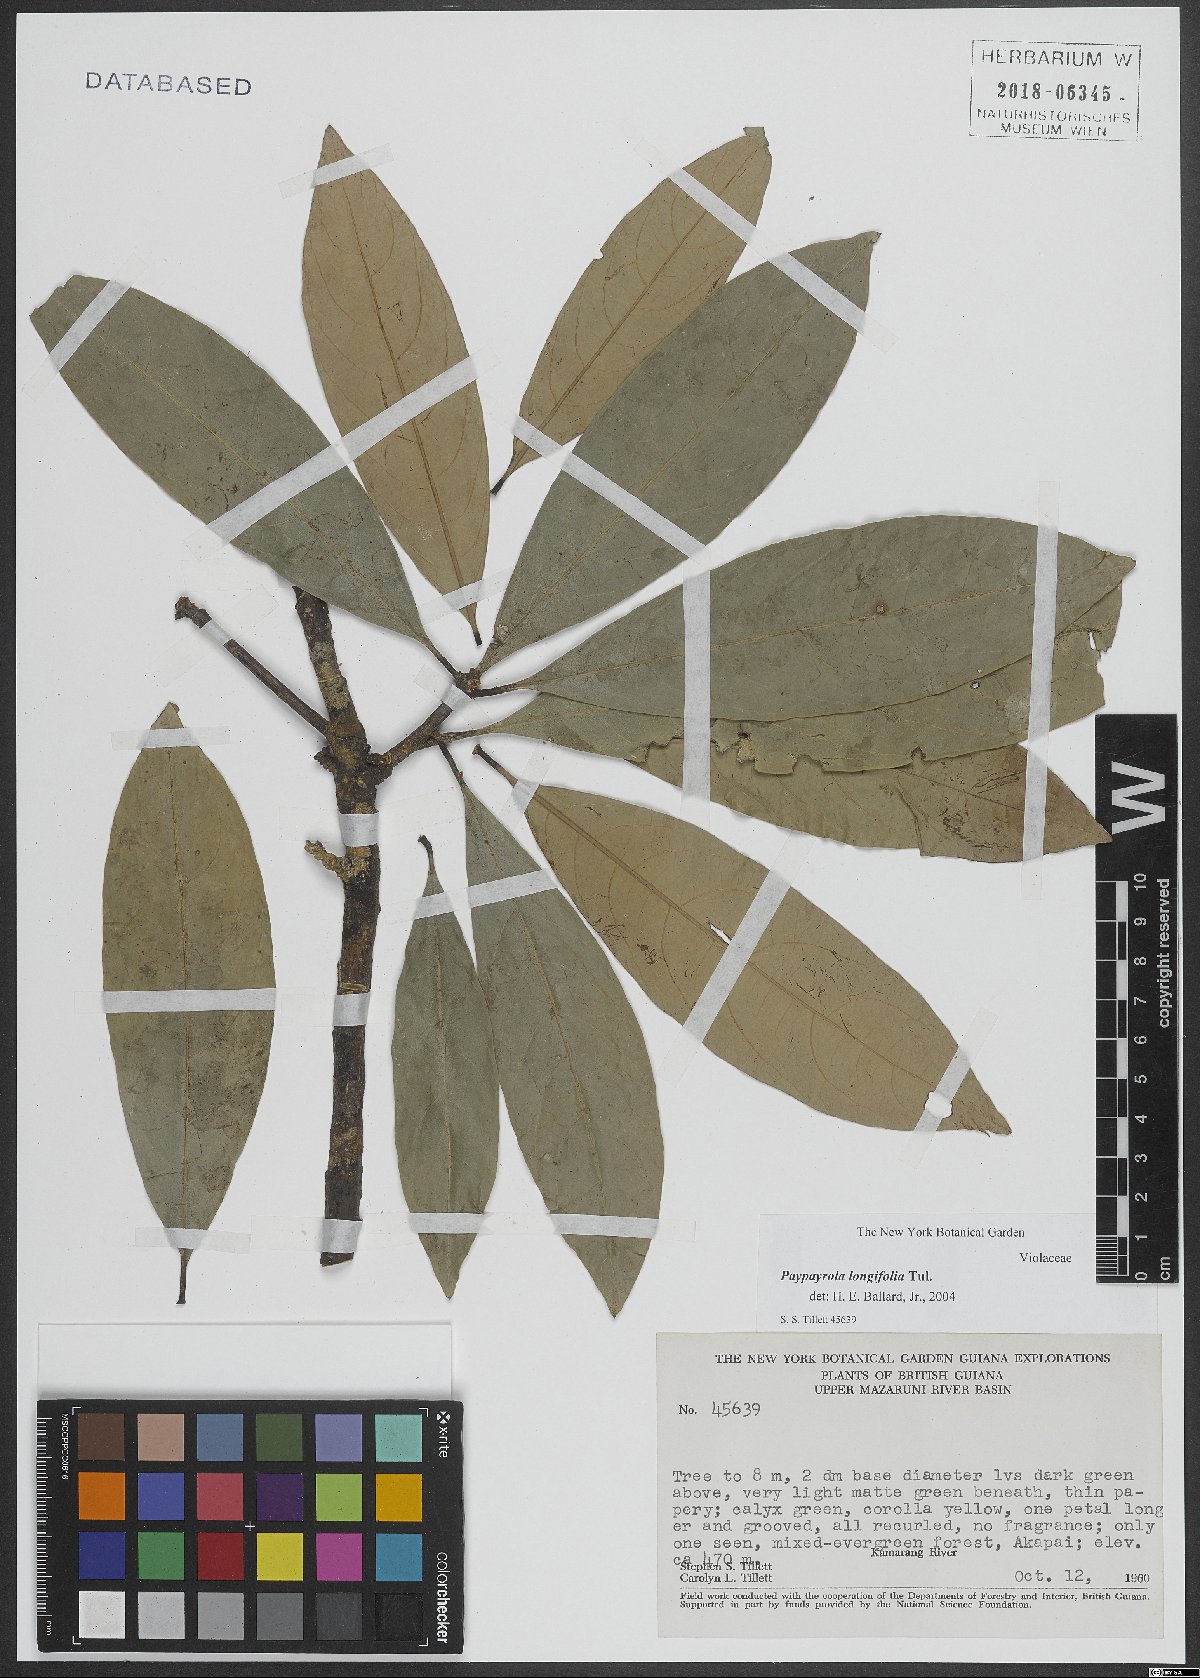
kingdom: Plantae
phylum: Tracheophyta
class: Magnoliopsida
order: Malpighiales
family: Violaceae
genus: Paypayrola
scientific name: Paypayrola longifolia
